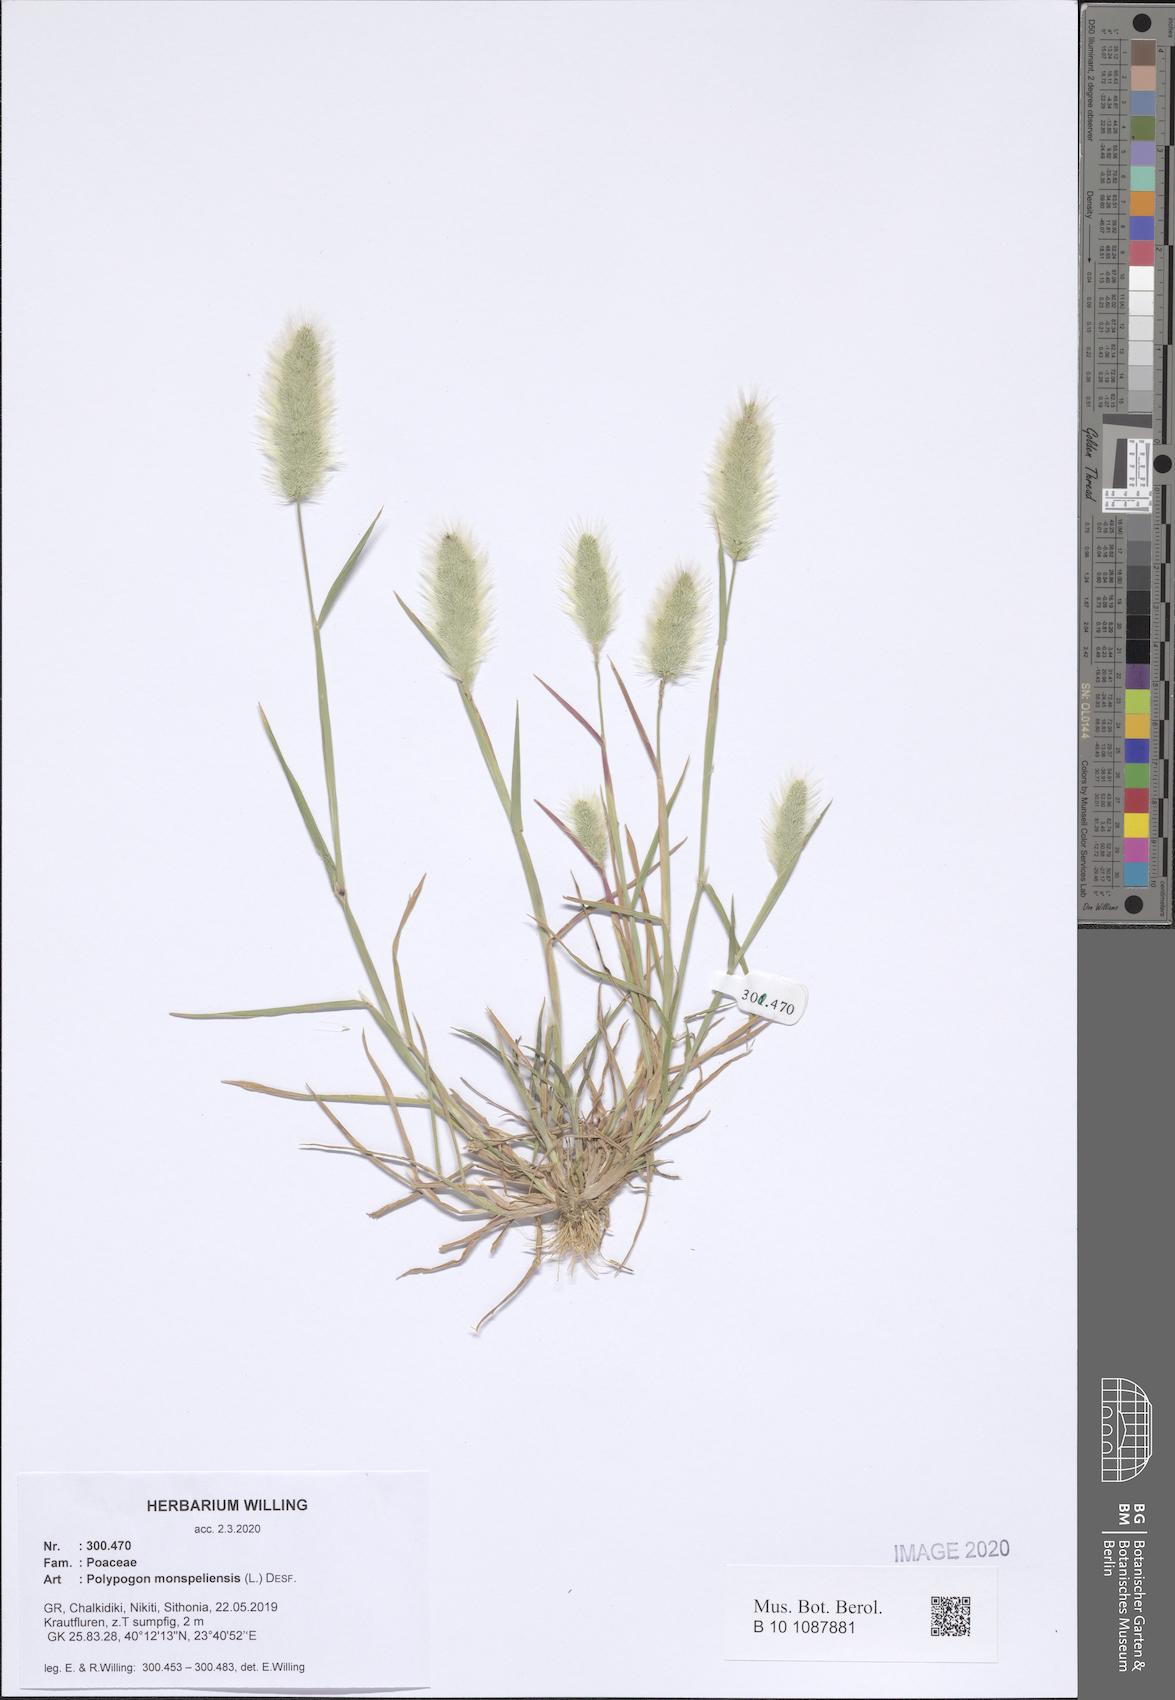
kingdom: Plantae
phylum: Tracheophyta
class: Liliopsida
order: Poales
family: Poaceae
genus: Polypogon
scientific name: Polypogon monspeliensis
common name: Annual rabbitsfoot grass
